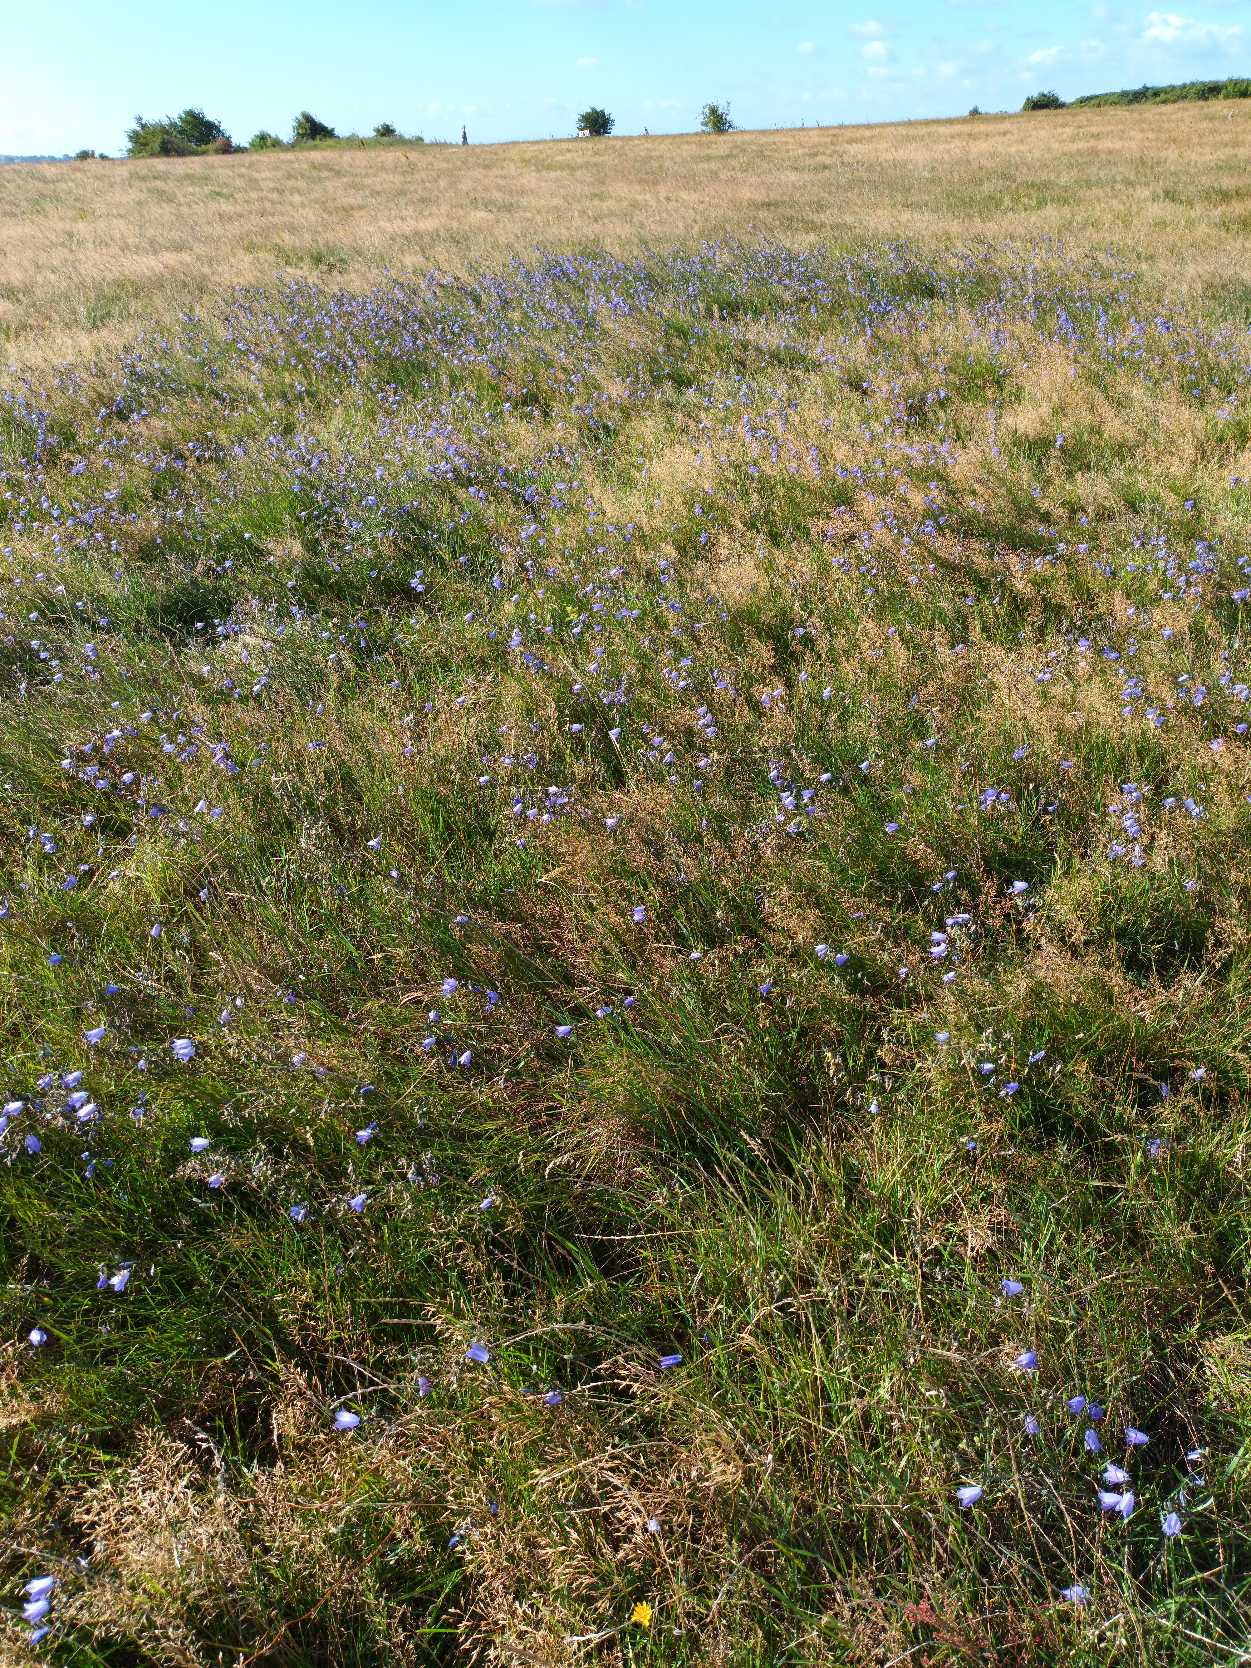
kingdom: Plantae
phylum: Tracheophyta
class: Magnoliopsida
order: Asterales
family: Campanulaceae
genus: Campanula
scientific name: Campanula rotundifolia
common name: Liden klokke
